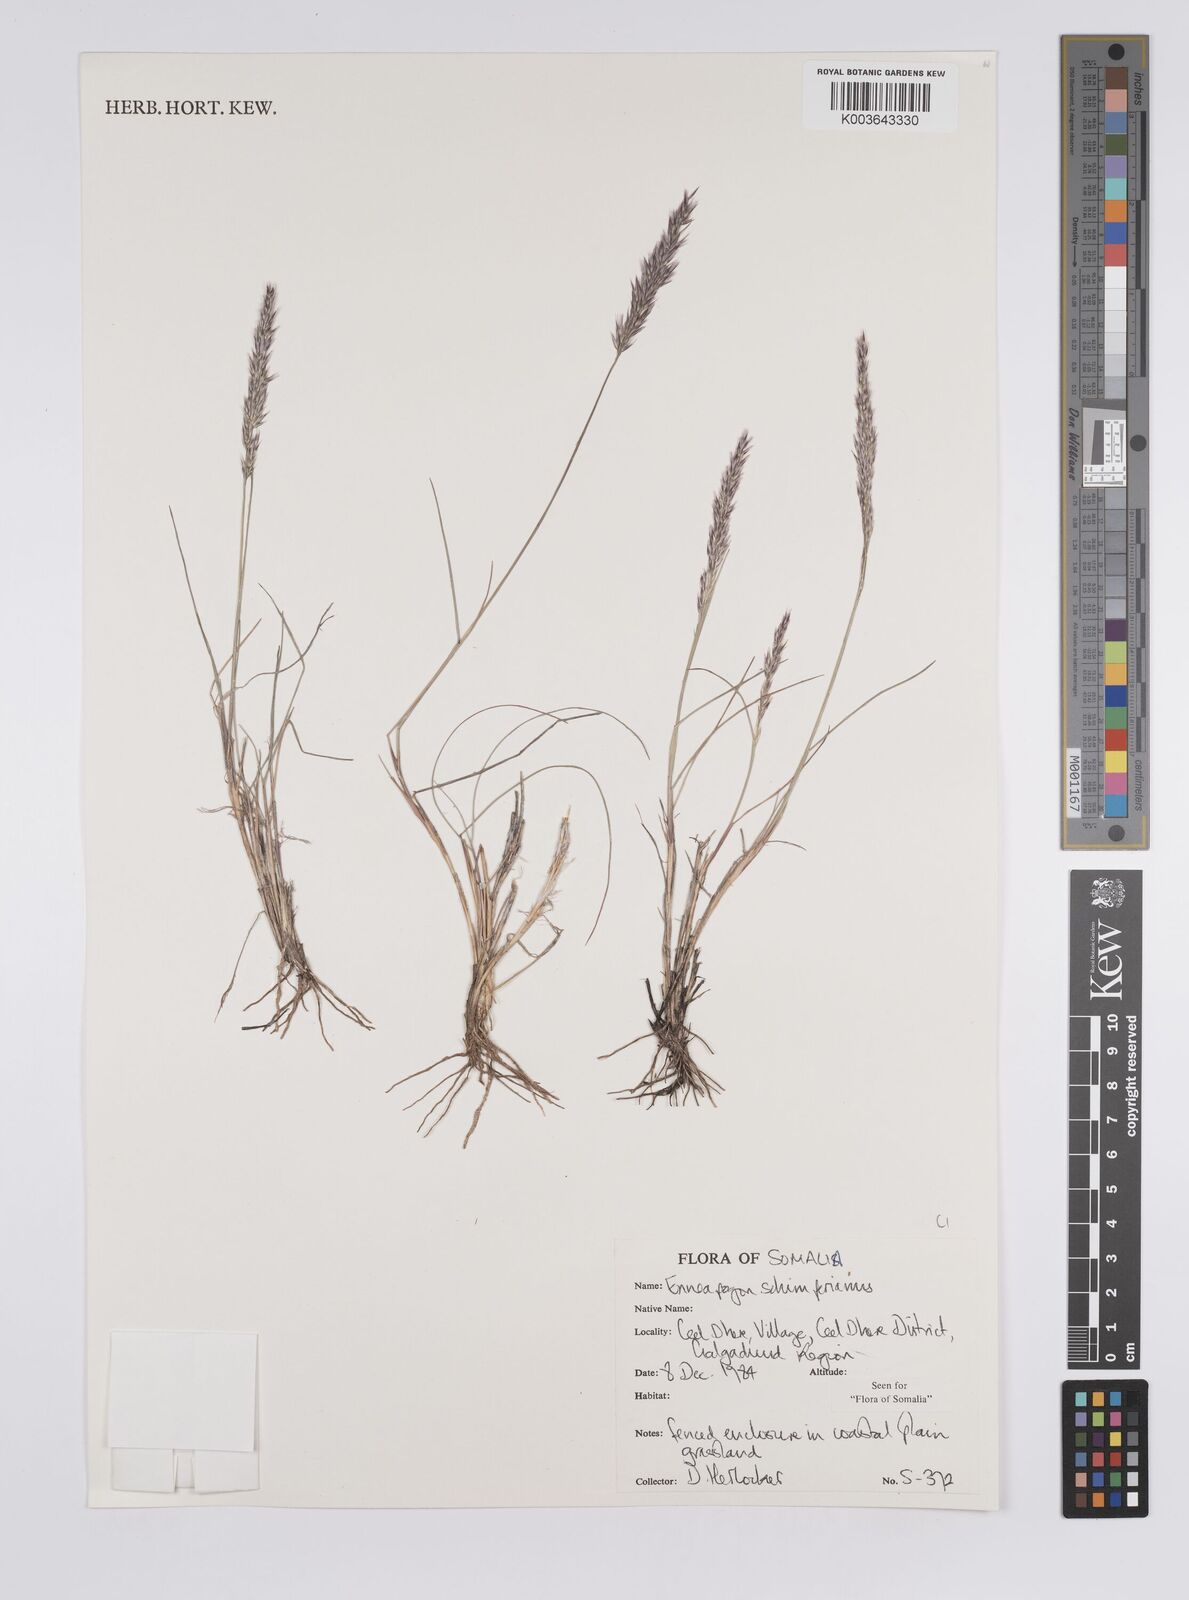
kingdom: Plantae
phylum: Tracheophyta
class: Liliopsida
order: Poales
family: Poaceae
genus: Enneapogon
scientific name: Enneapogon persicus
